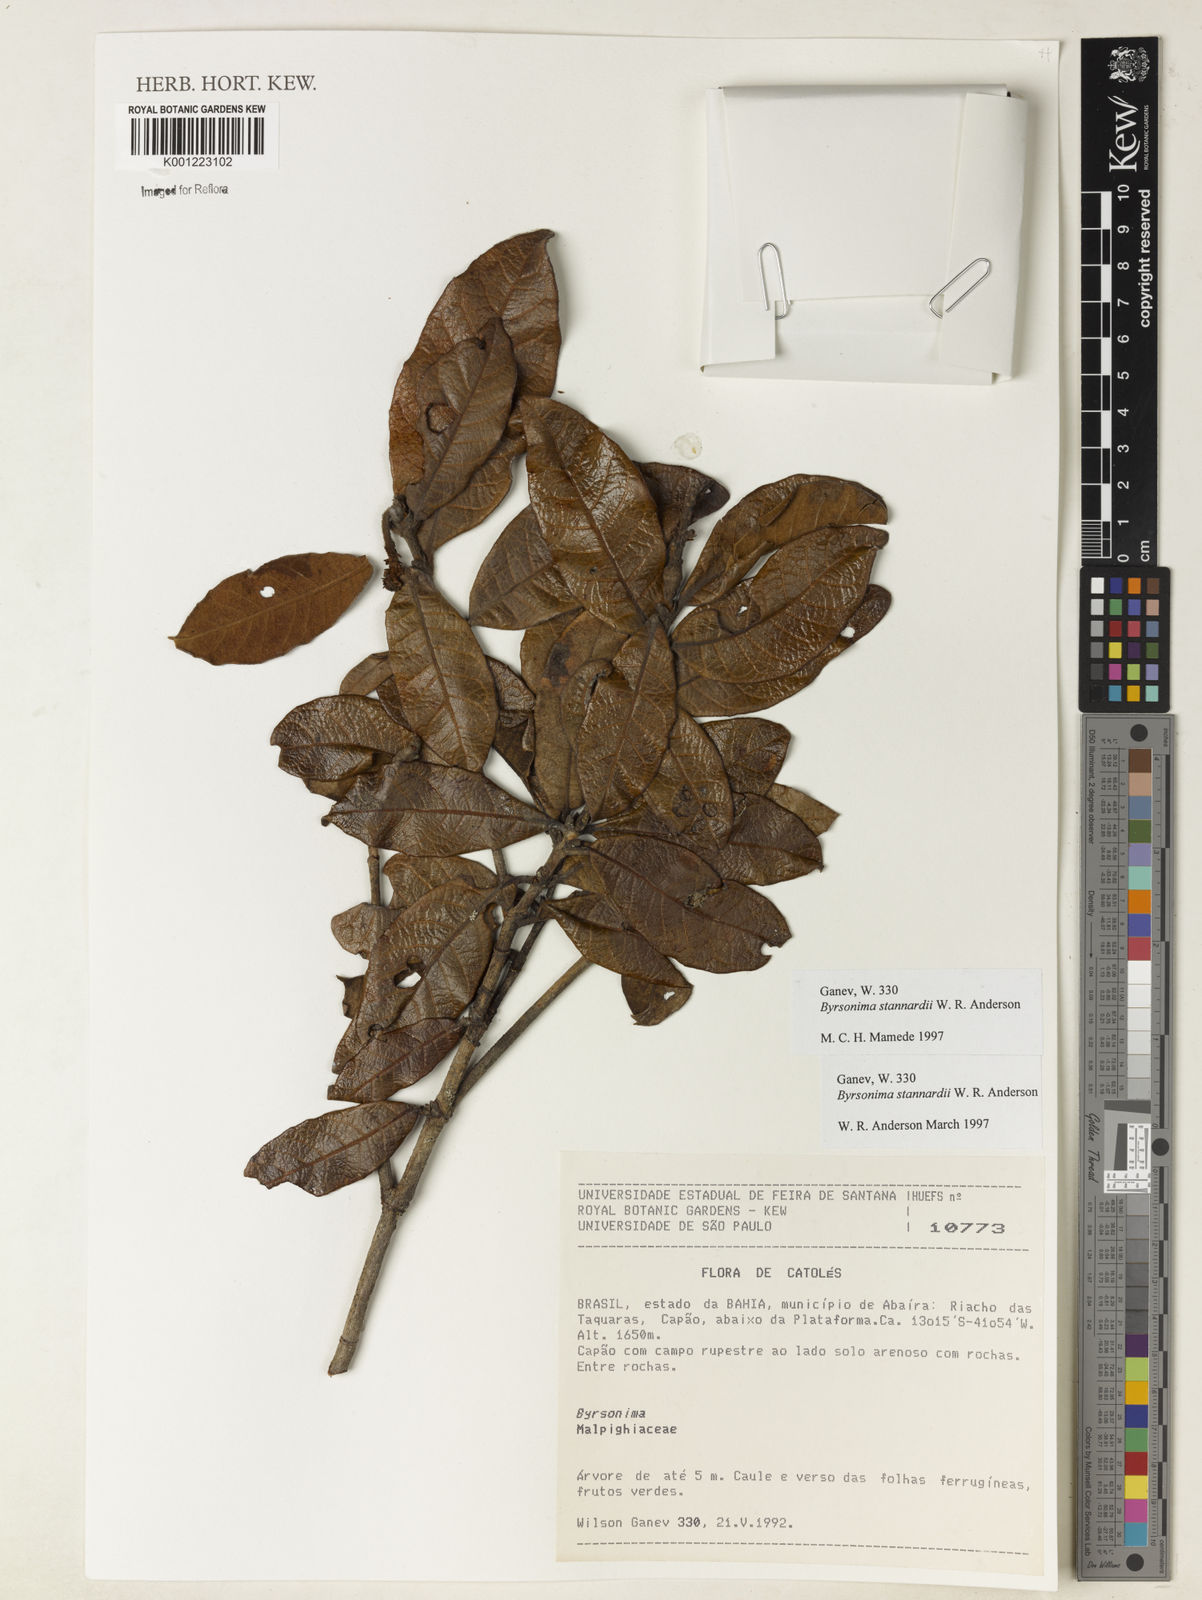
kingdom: Plantae
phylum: Tracheophyta
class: Magnoliopsida
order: Malpighiales
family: Malpighiaceae
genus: Byrsonima
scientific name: Byrsonima stannardii
